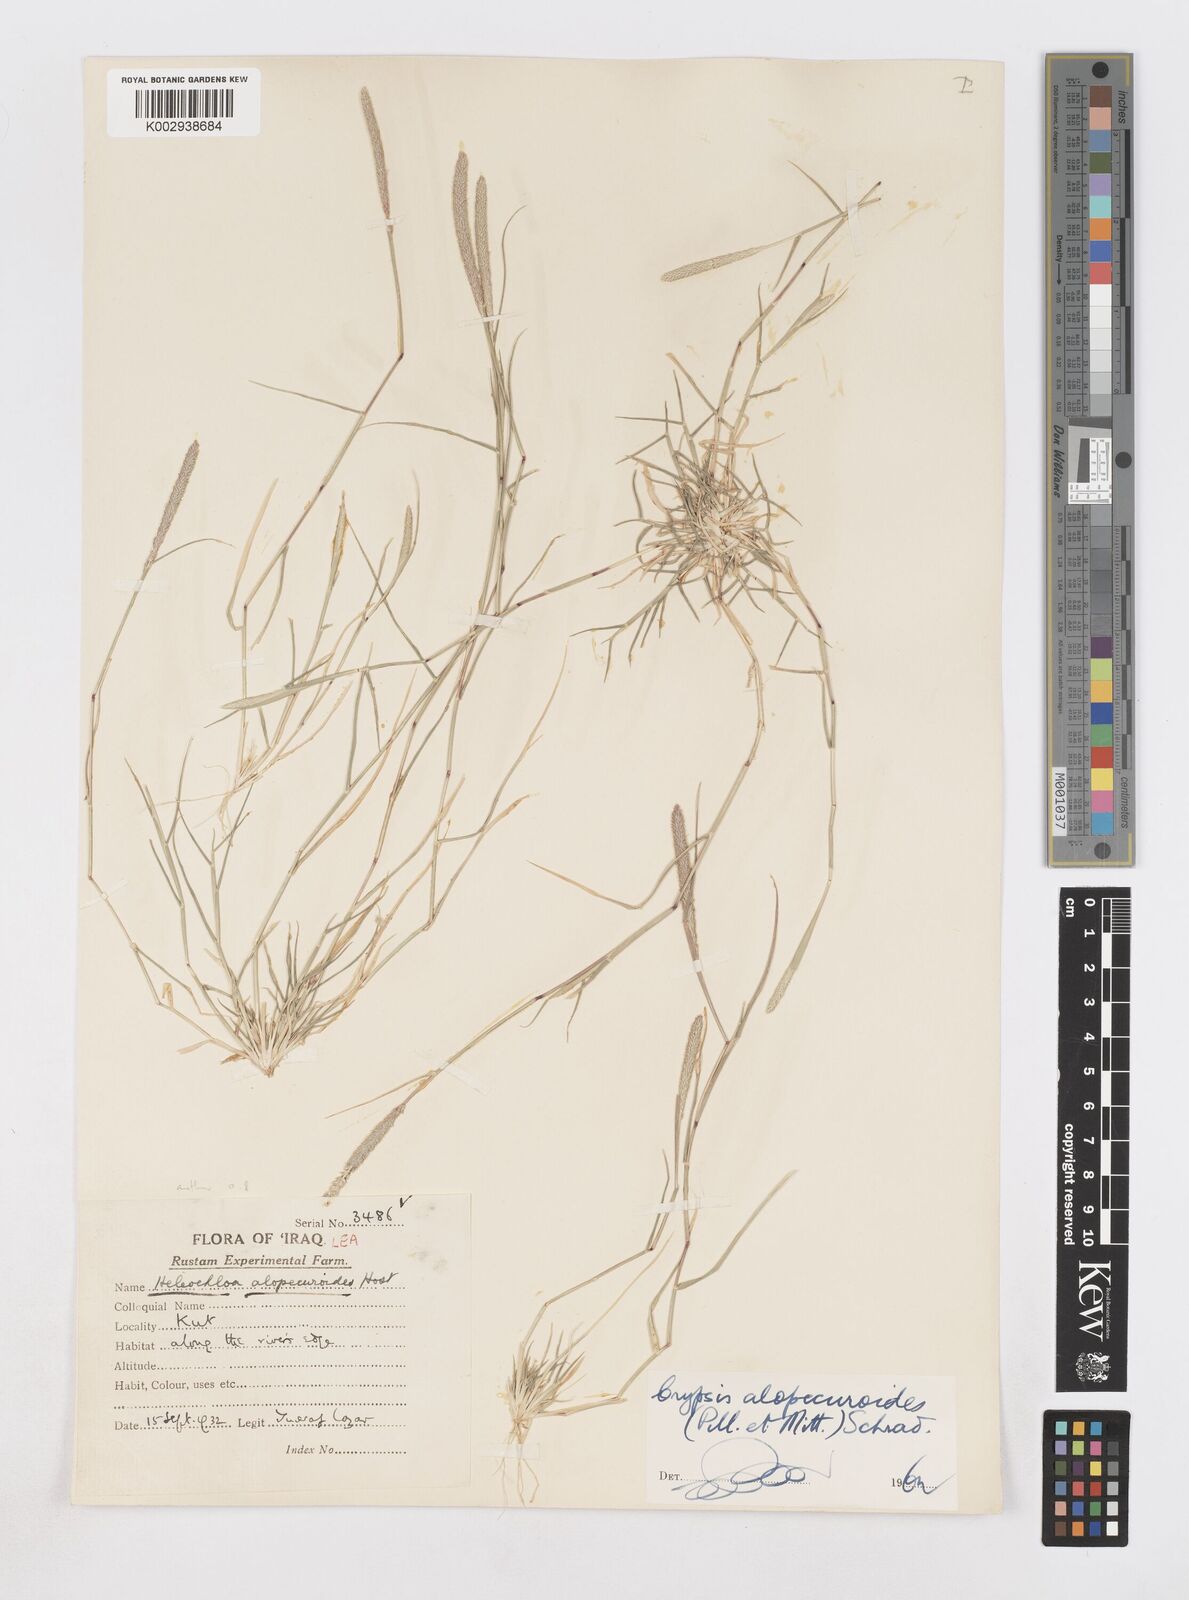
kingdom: Plantae
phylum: Tracheophyta
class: Liliopsida
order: Poales
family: Poaceae
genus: Sporobolus
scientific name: Sporobolus alopecuroides
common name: Foxtail pricklegrass
